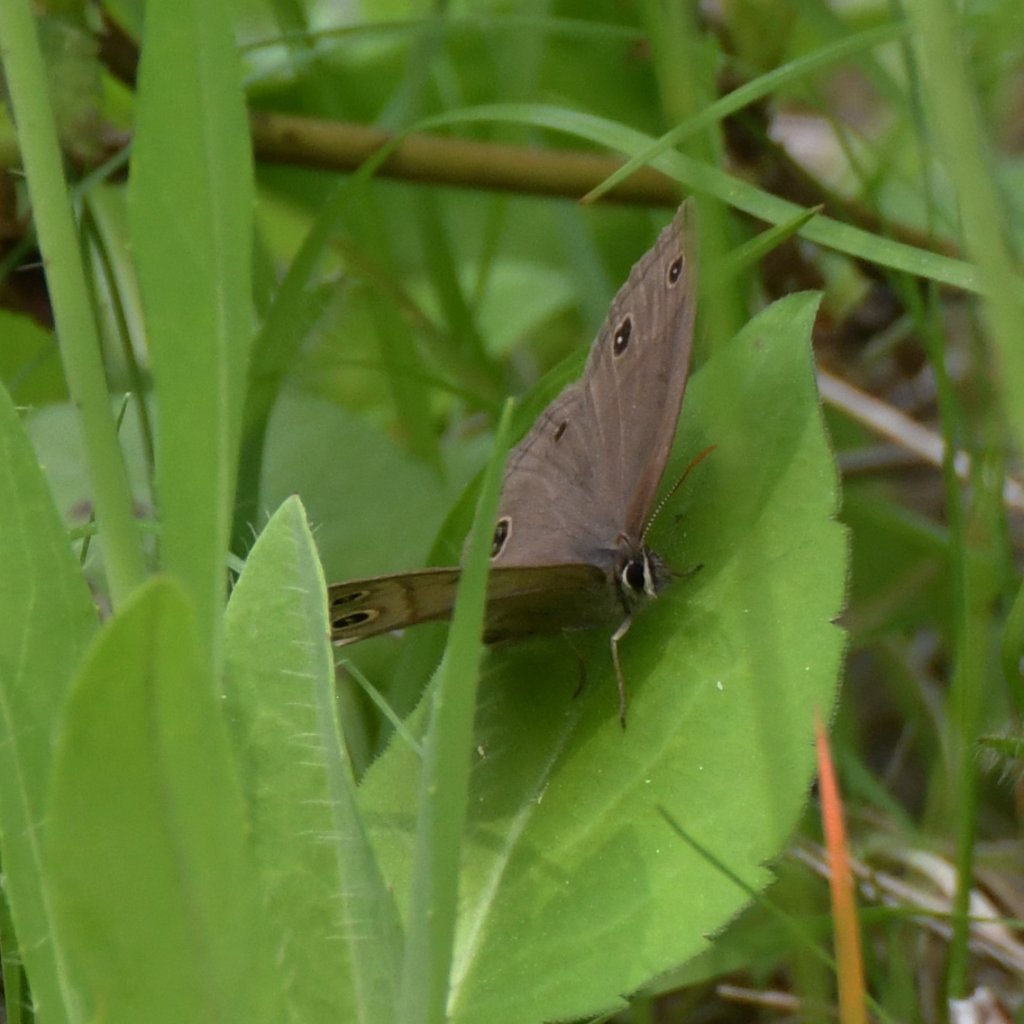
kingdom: Animalia
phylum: Arthropoda
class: Insecta
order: Lepidoptera
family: Nymphalidae
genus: Euptychia
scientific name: Euptychia cymela
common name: Little Wood Satyr
